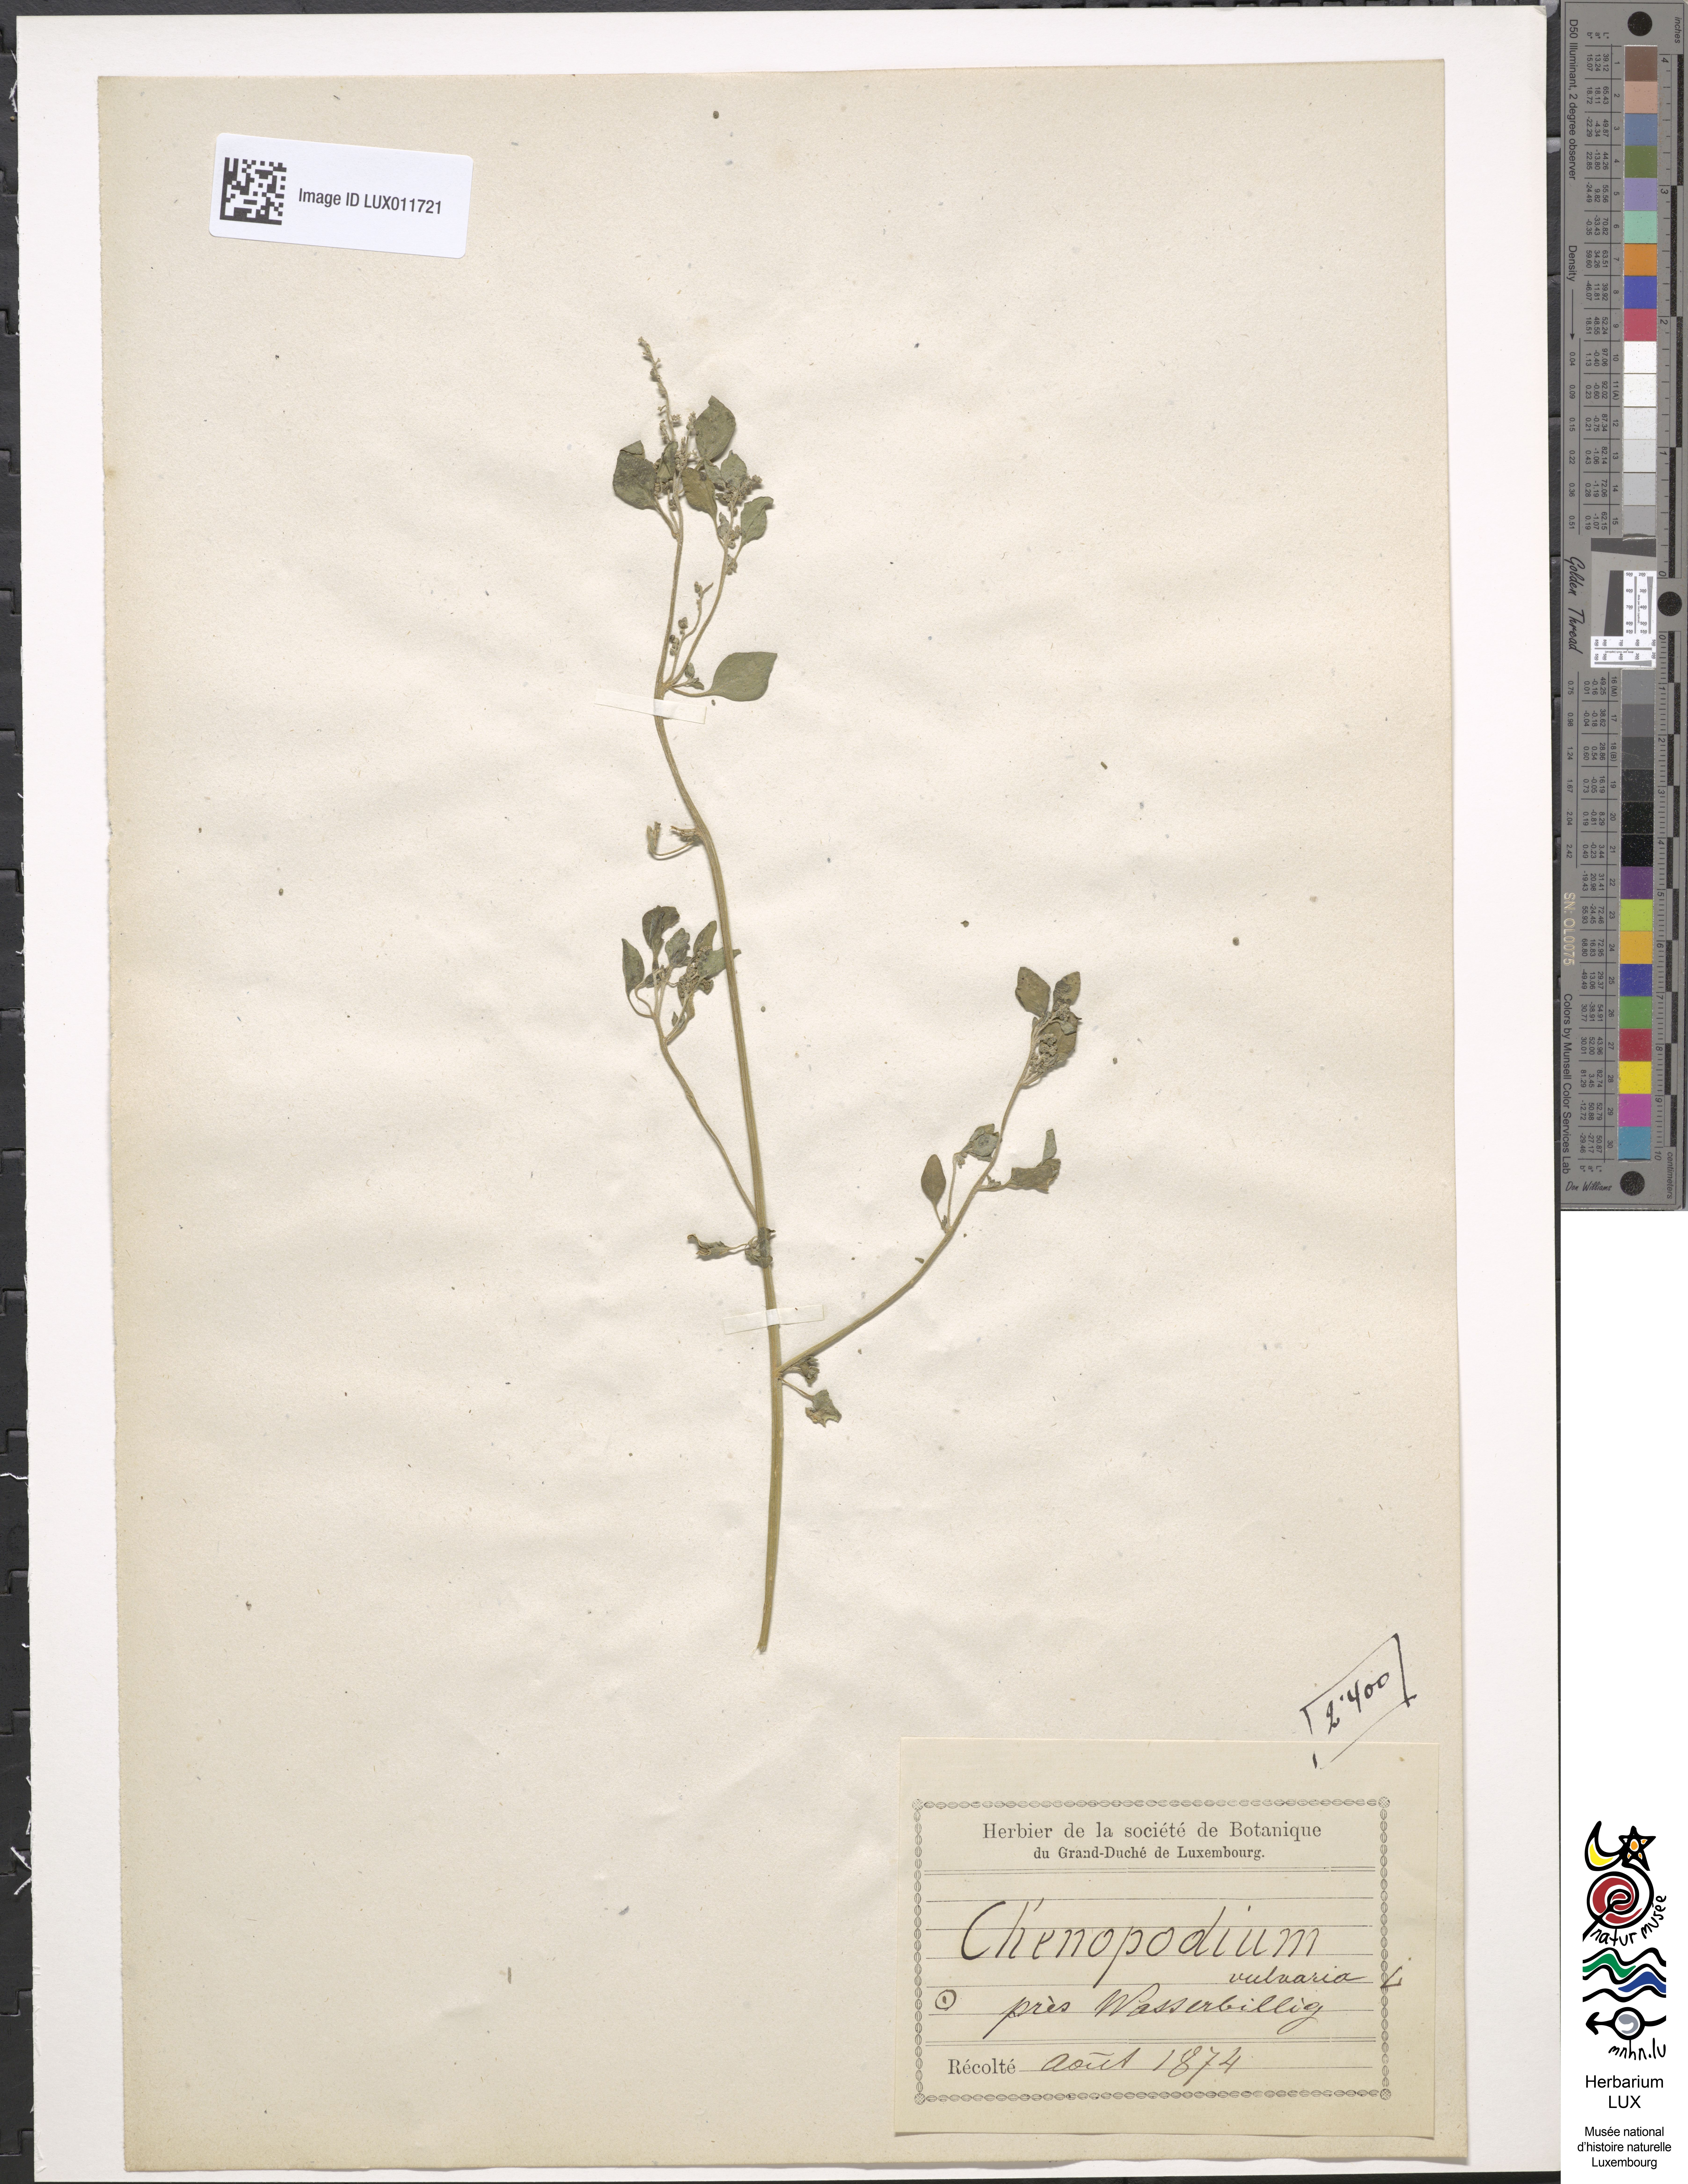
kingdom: Plantae
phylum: Tracheophyta
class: Magnoliopsida
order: Caryophyllales
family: Amaranthaceae
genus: Chenopodium
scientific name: Chenopodium vulvaria
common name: Stinking goosefoot
